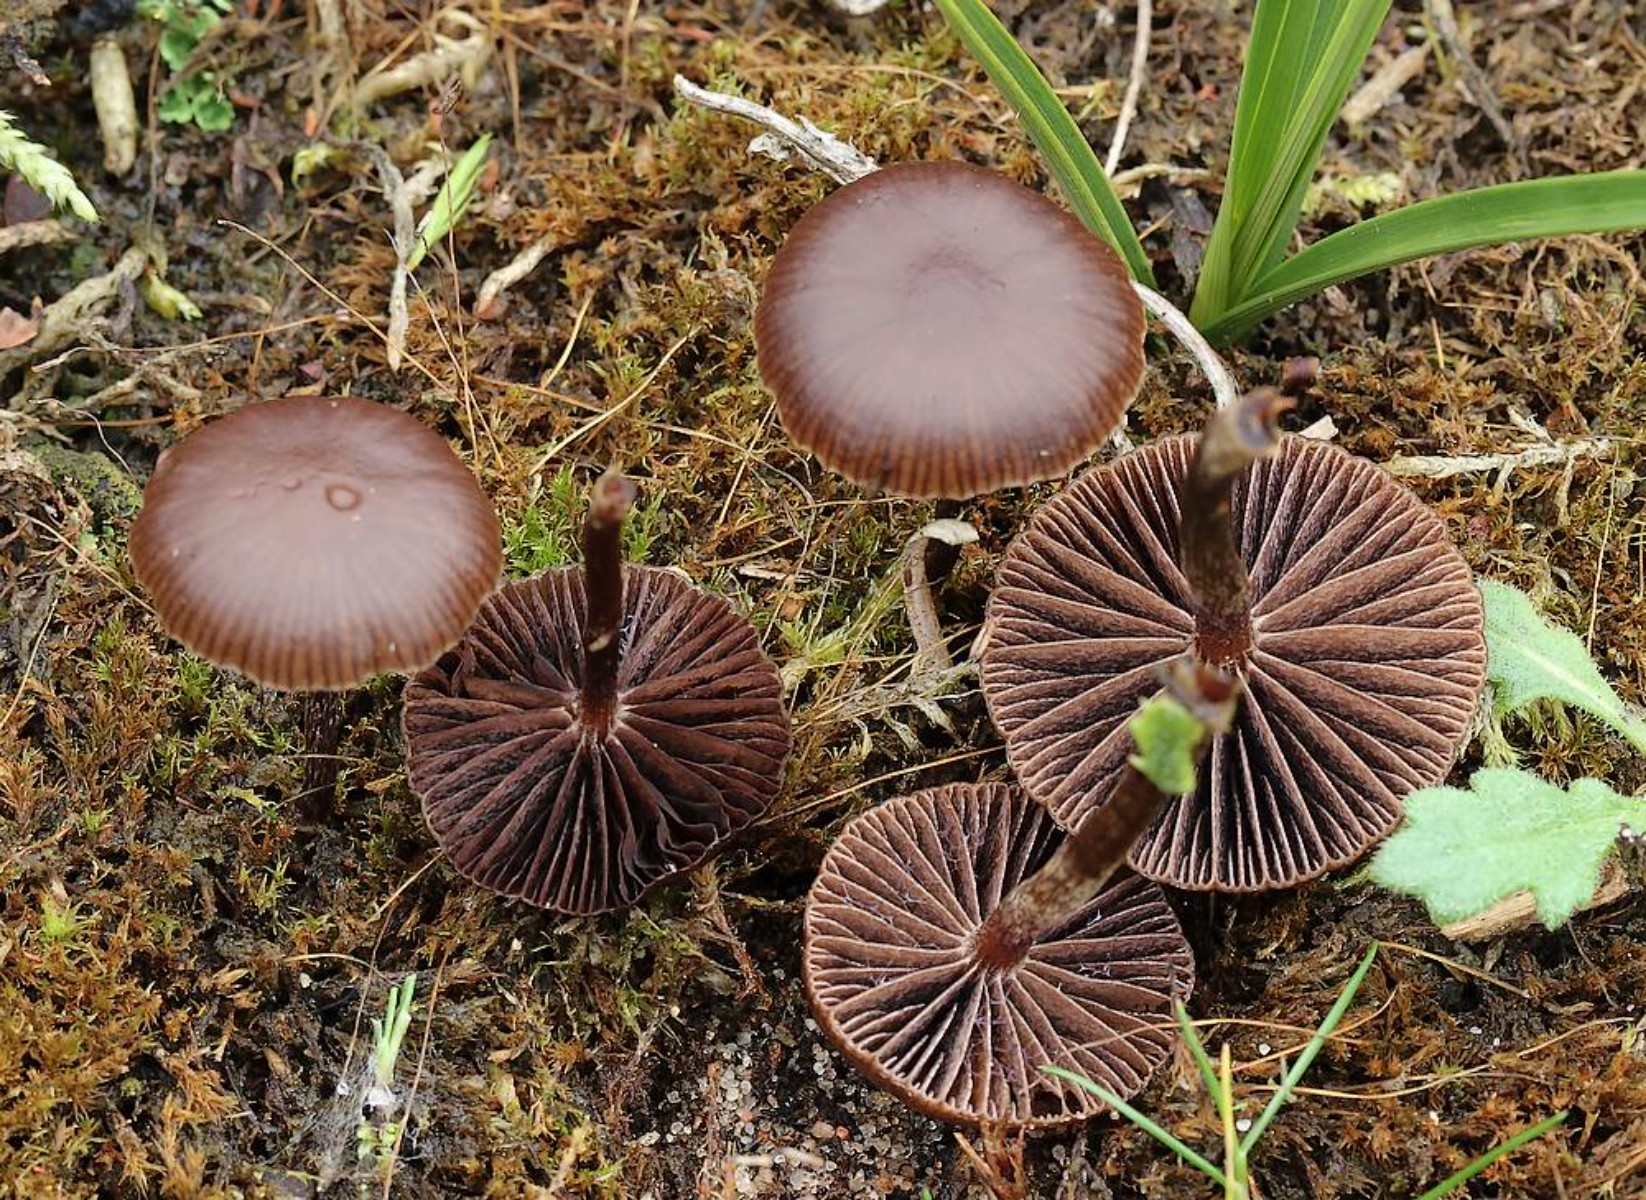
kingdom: Fungi
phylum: Basidiomycota
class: Agaricomycetes
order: Agaricales
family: Strophariaceae
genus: Deconica
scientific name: Deconica montana
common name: rødbrun stråhat
